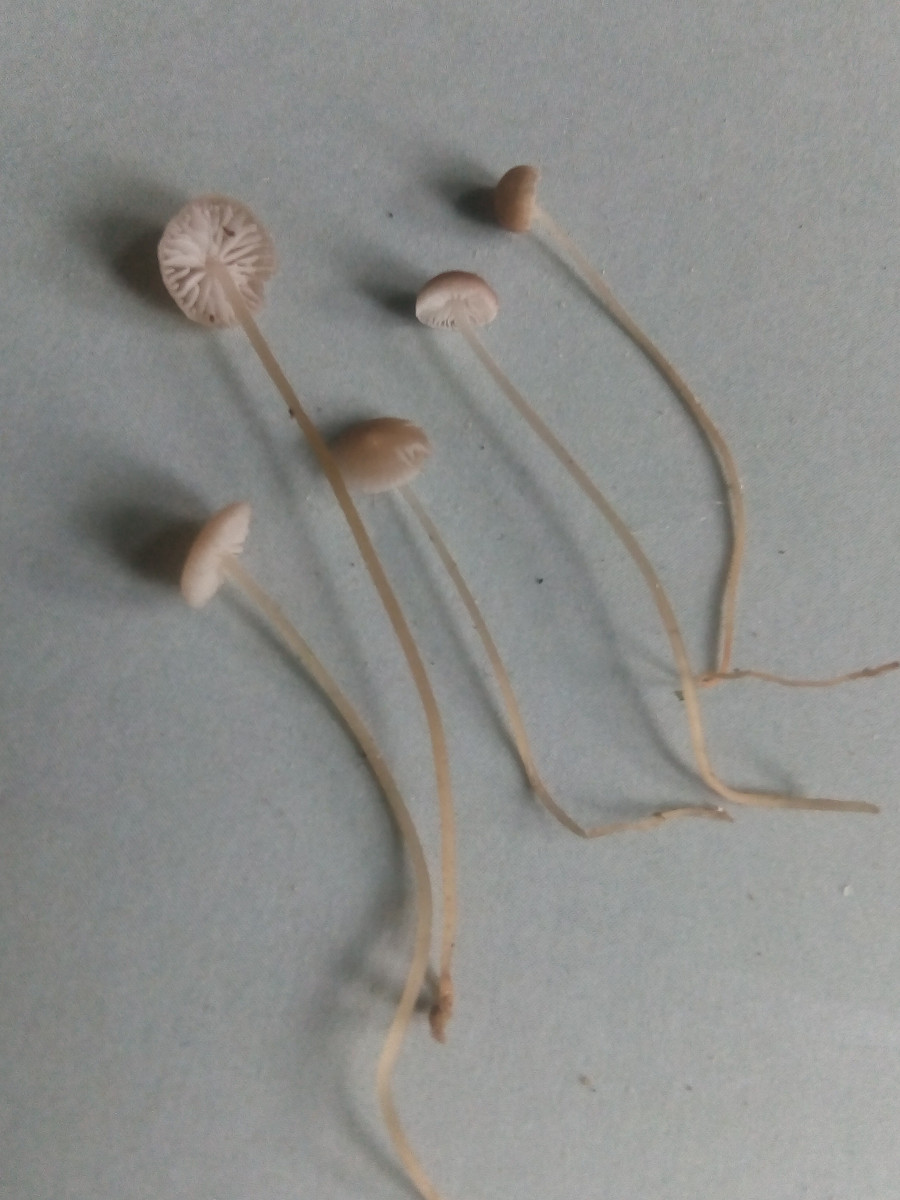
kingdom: Fungi
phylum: Basidiomycota
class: Agaricomycetes
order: Agaricales
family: Physalacriaceae
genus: Strobilurus
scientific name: Strobilurus esculentus
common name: gran-koglehat
